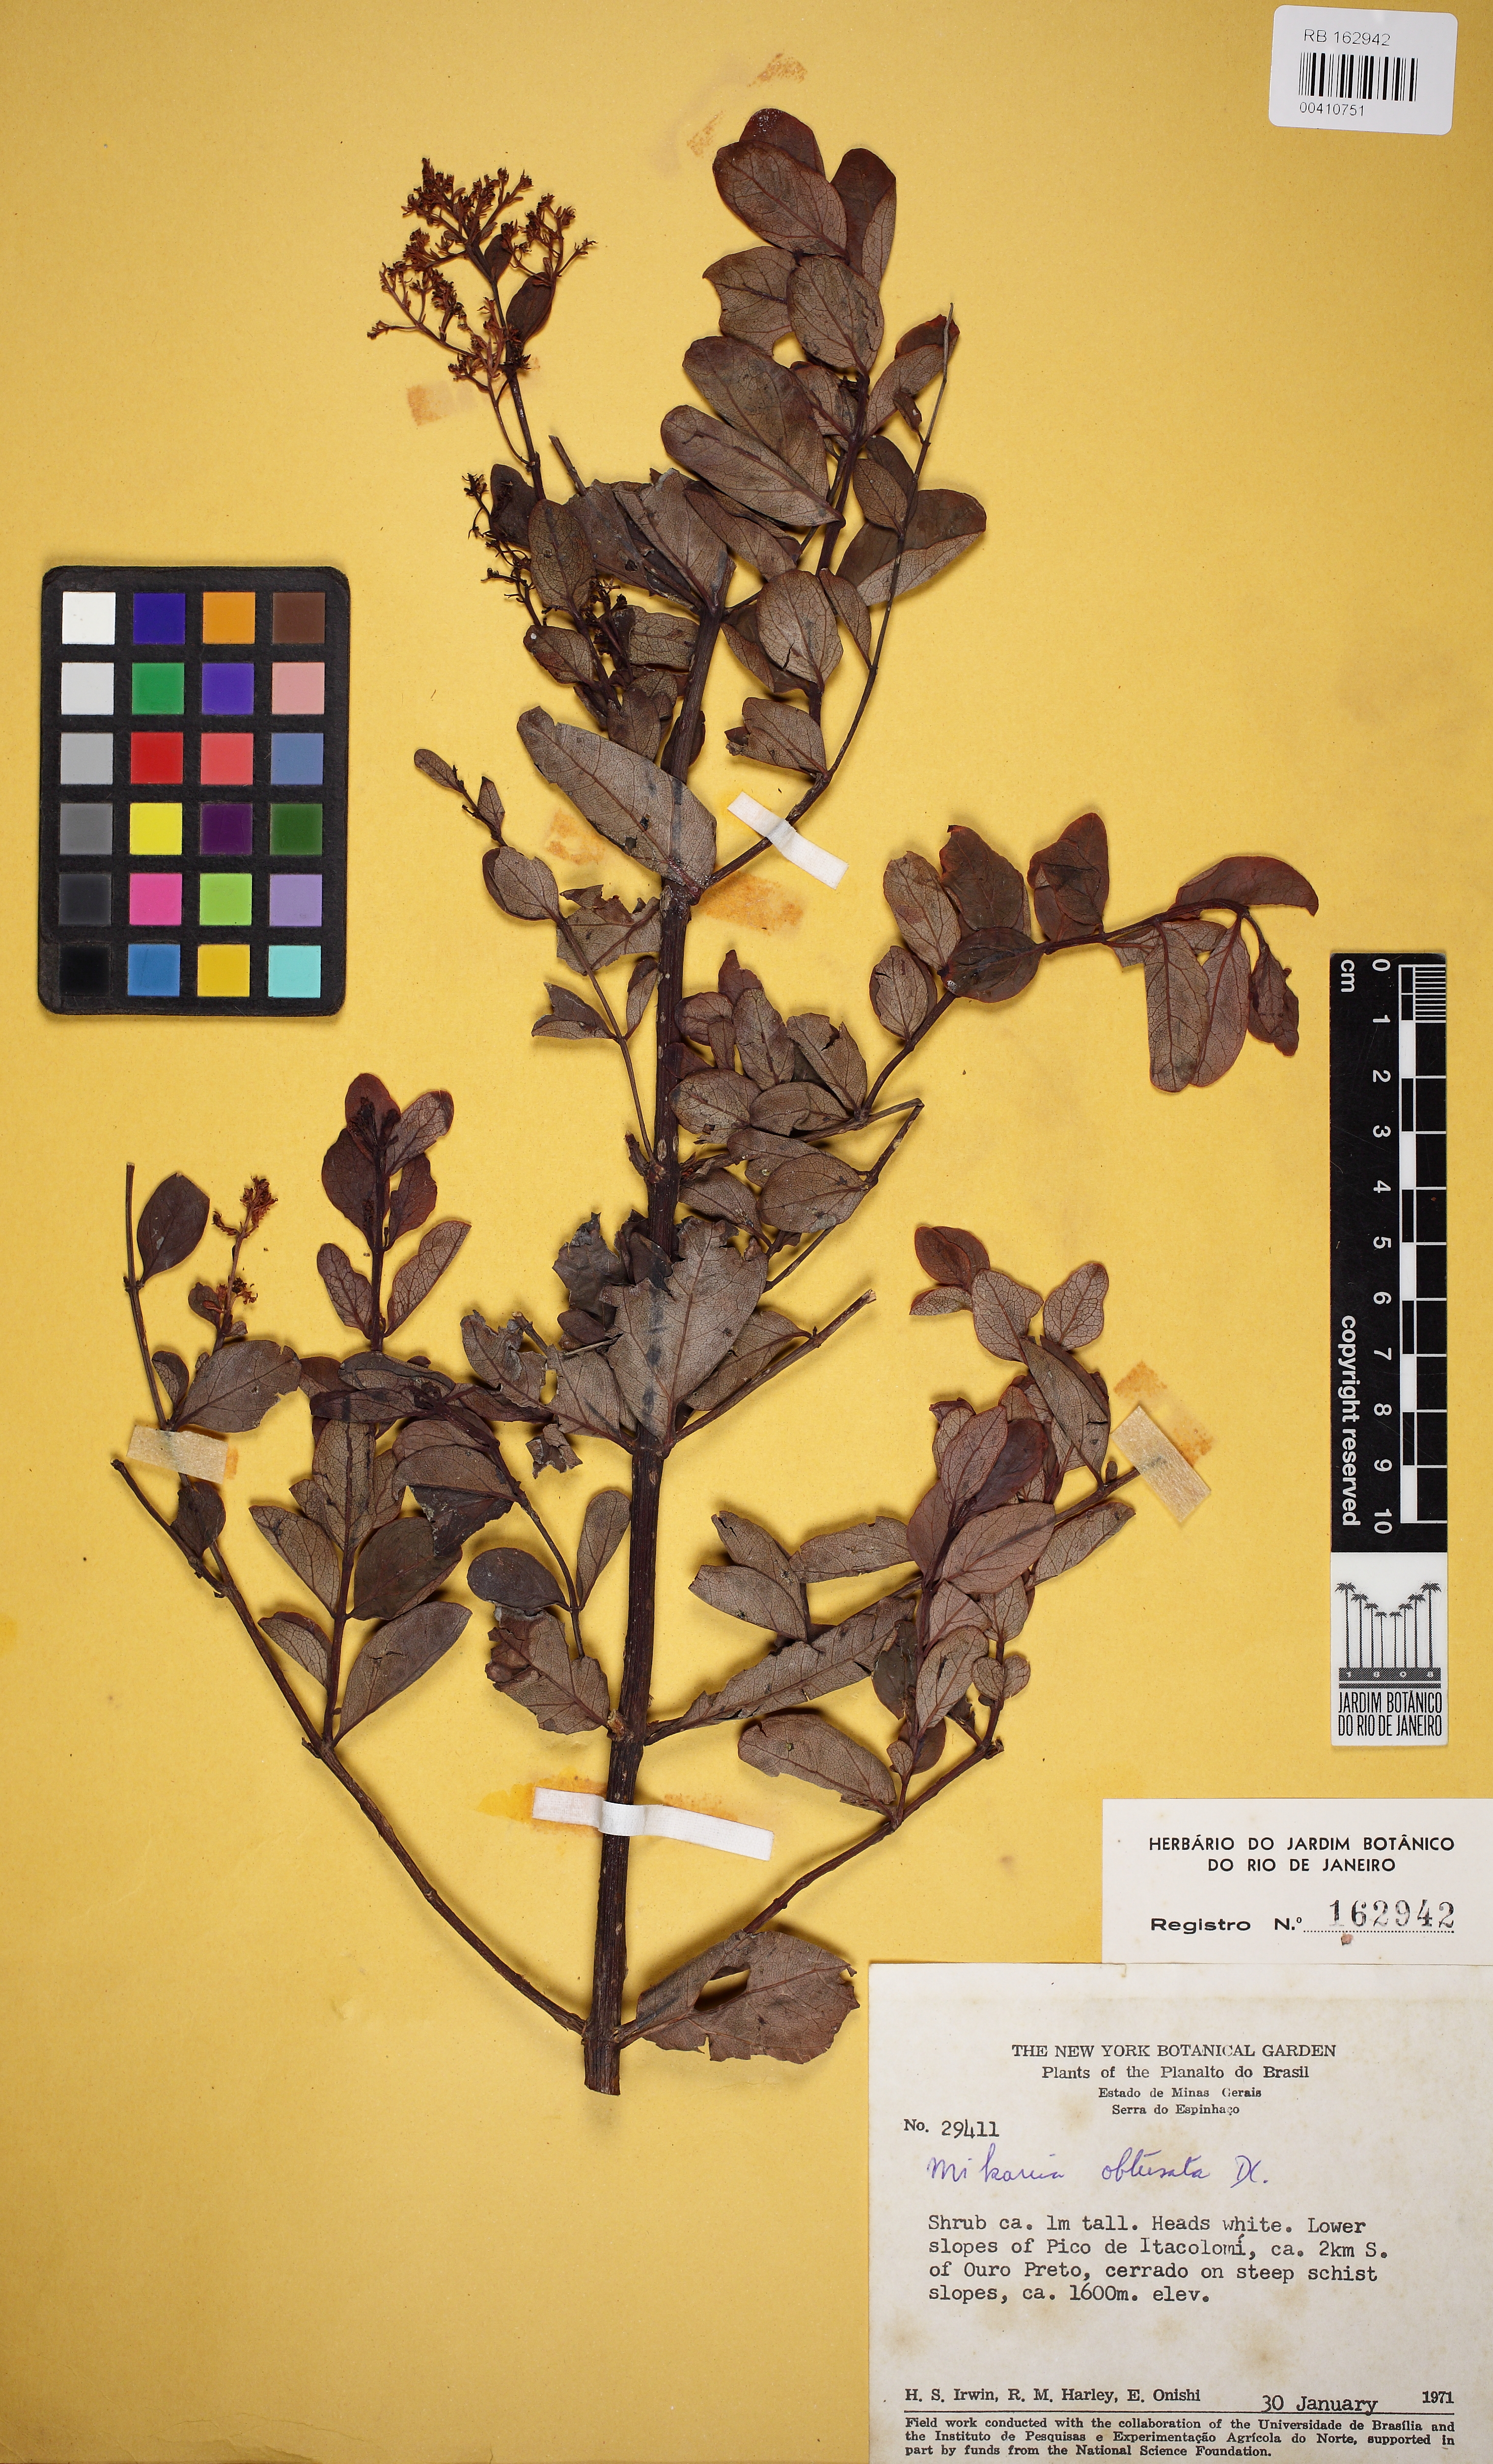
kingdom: Plantae
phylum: Tracheophyta
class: Magnoliopsida
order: Asterales
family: Asteraceae
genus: Mikania
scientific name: Mikania obtusata
